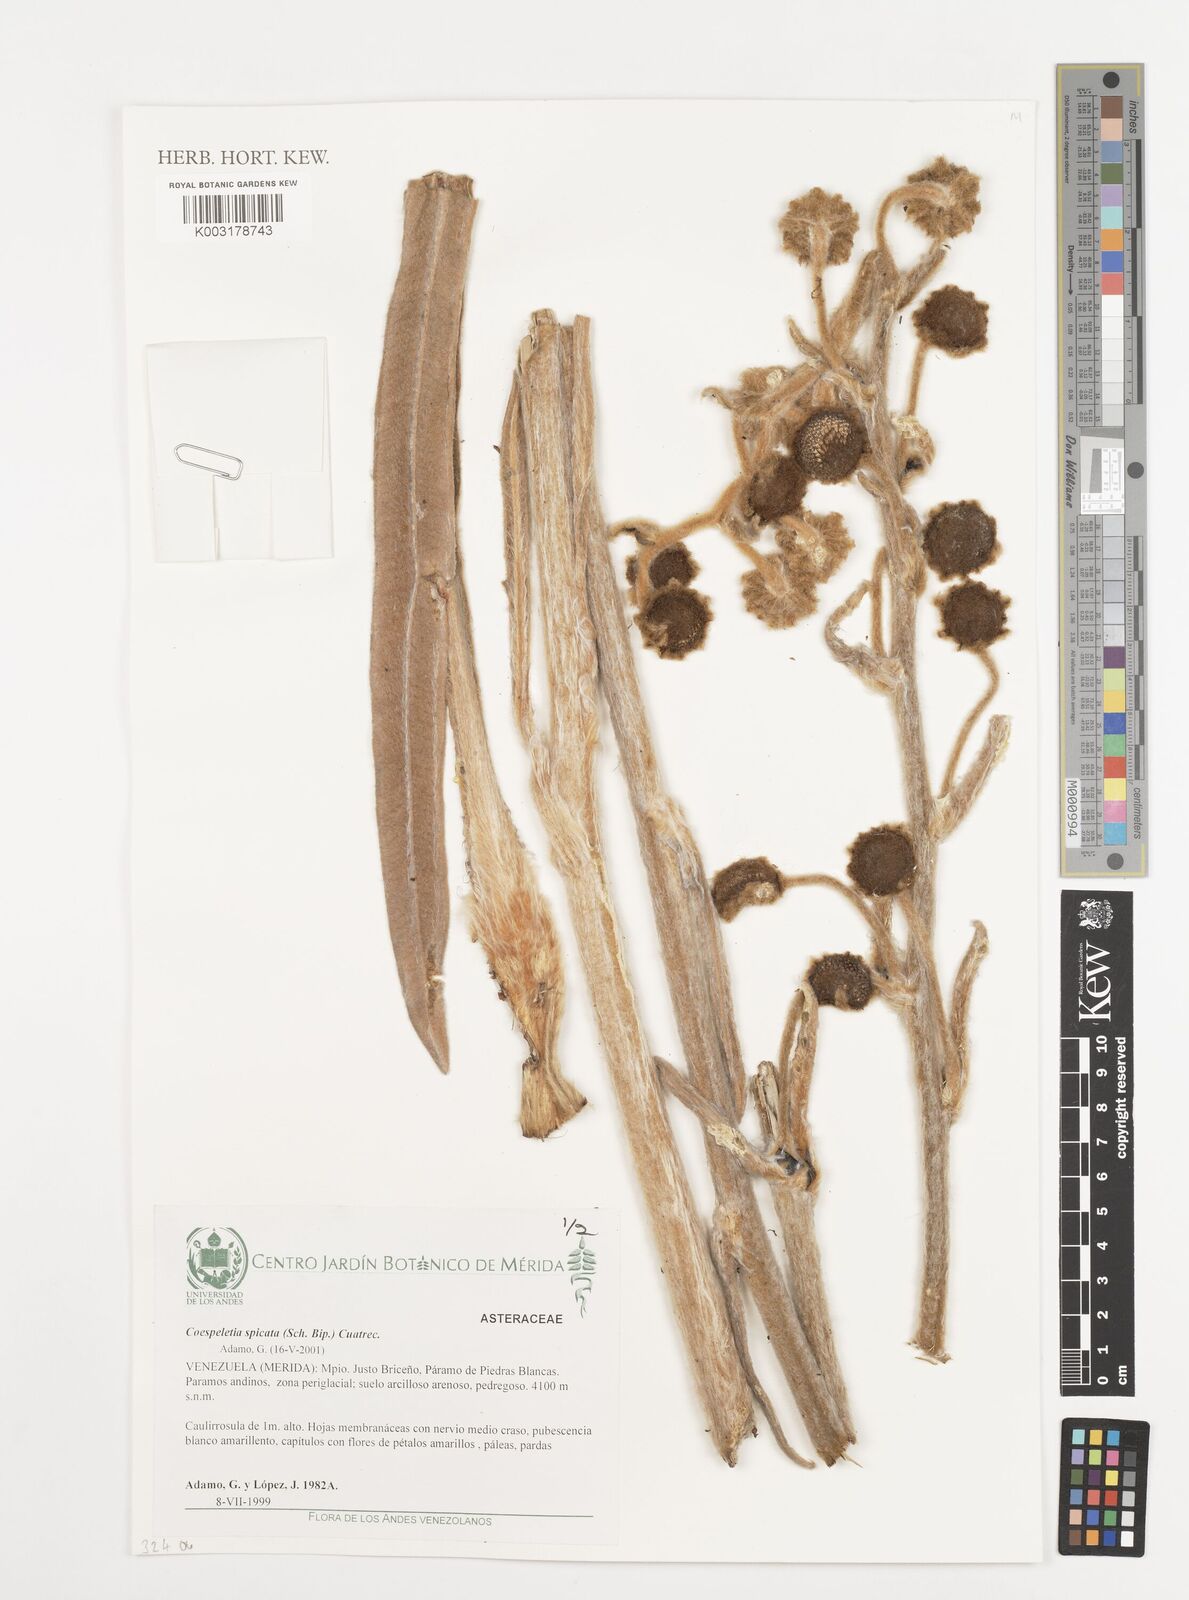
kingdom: Plantae
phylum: Tracheophyta
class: Magnoliopsida
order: Asterales
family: Asteraceae
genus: Espeletia
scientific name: Espeletia spicata
